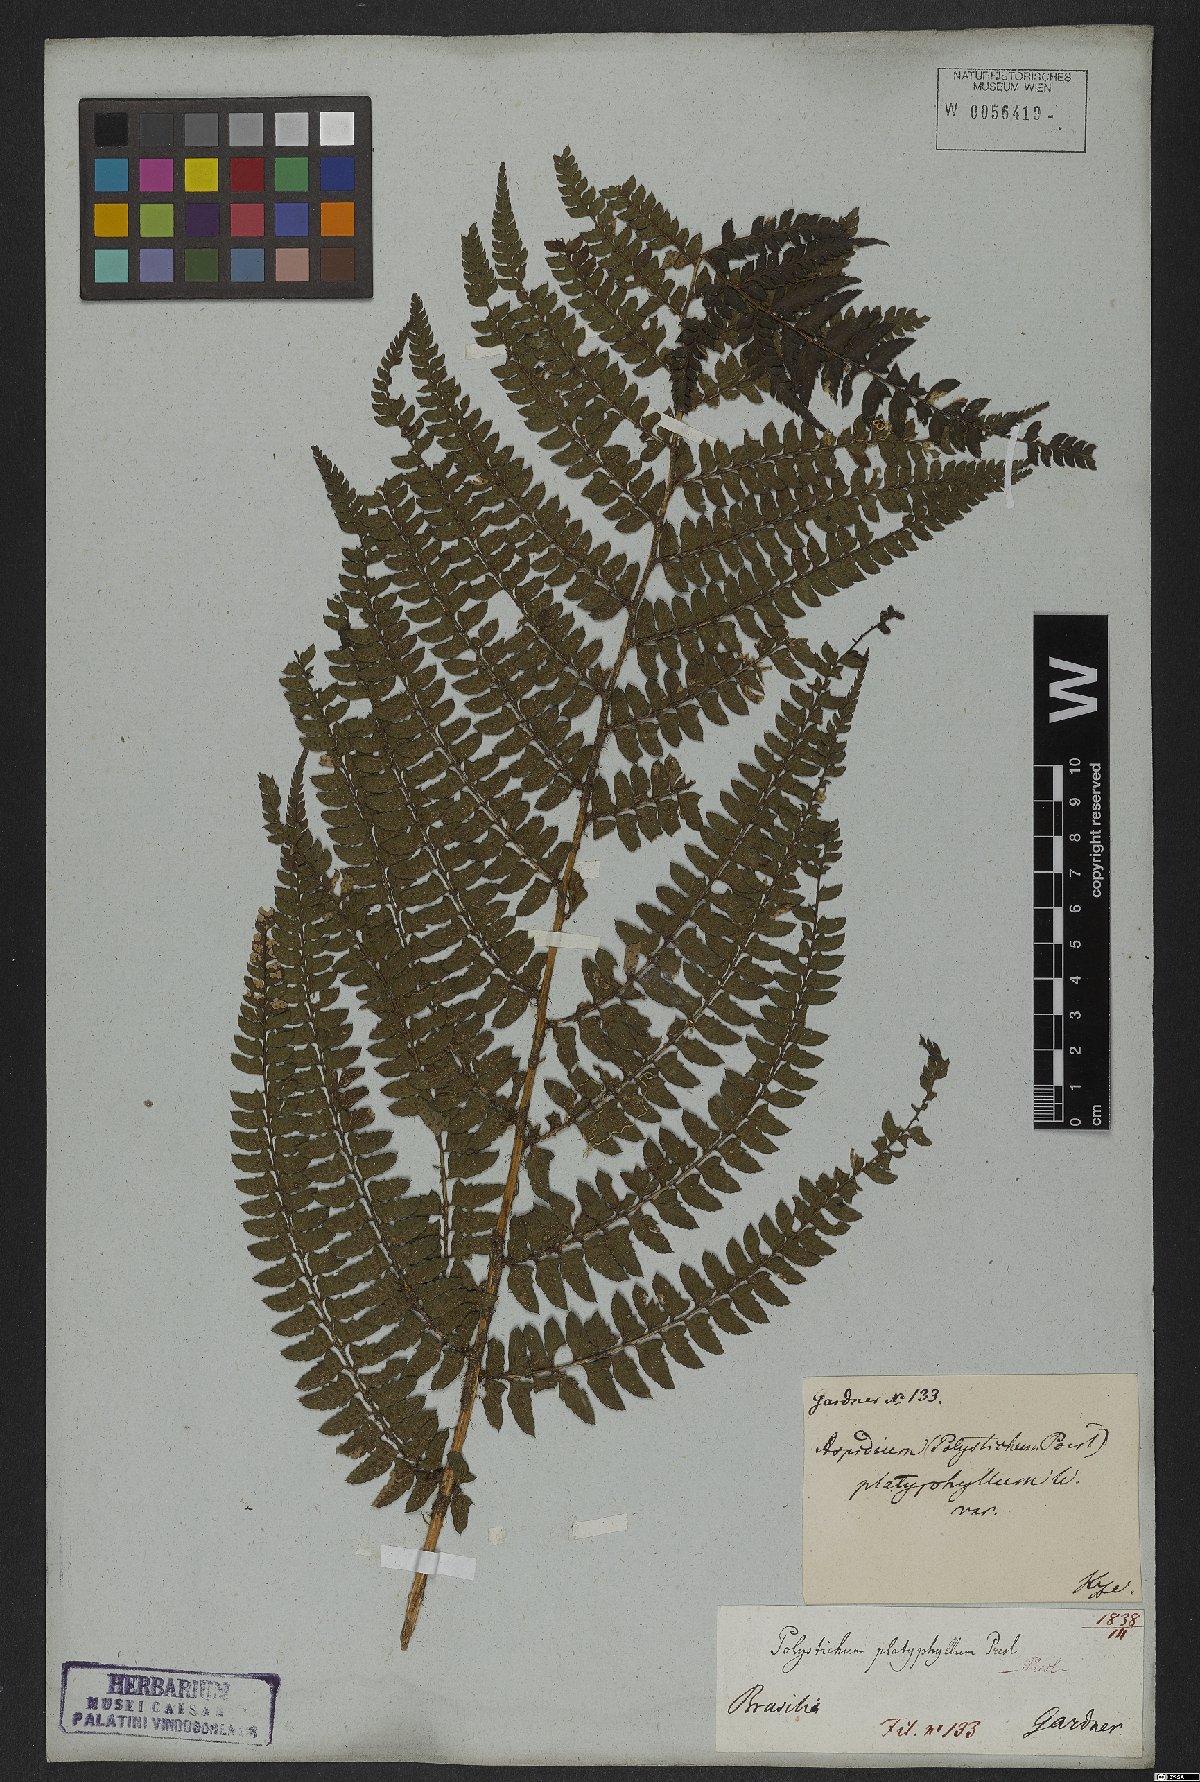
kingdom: Plantae
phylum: Tracheophyta
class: Polypodiopsida
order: Polypodiales
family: Dryopteridaceae
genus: Polystichum
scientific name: Polystichum aculeatum
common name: Hard shield-fern
